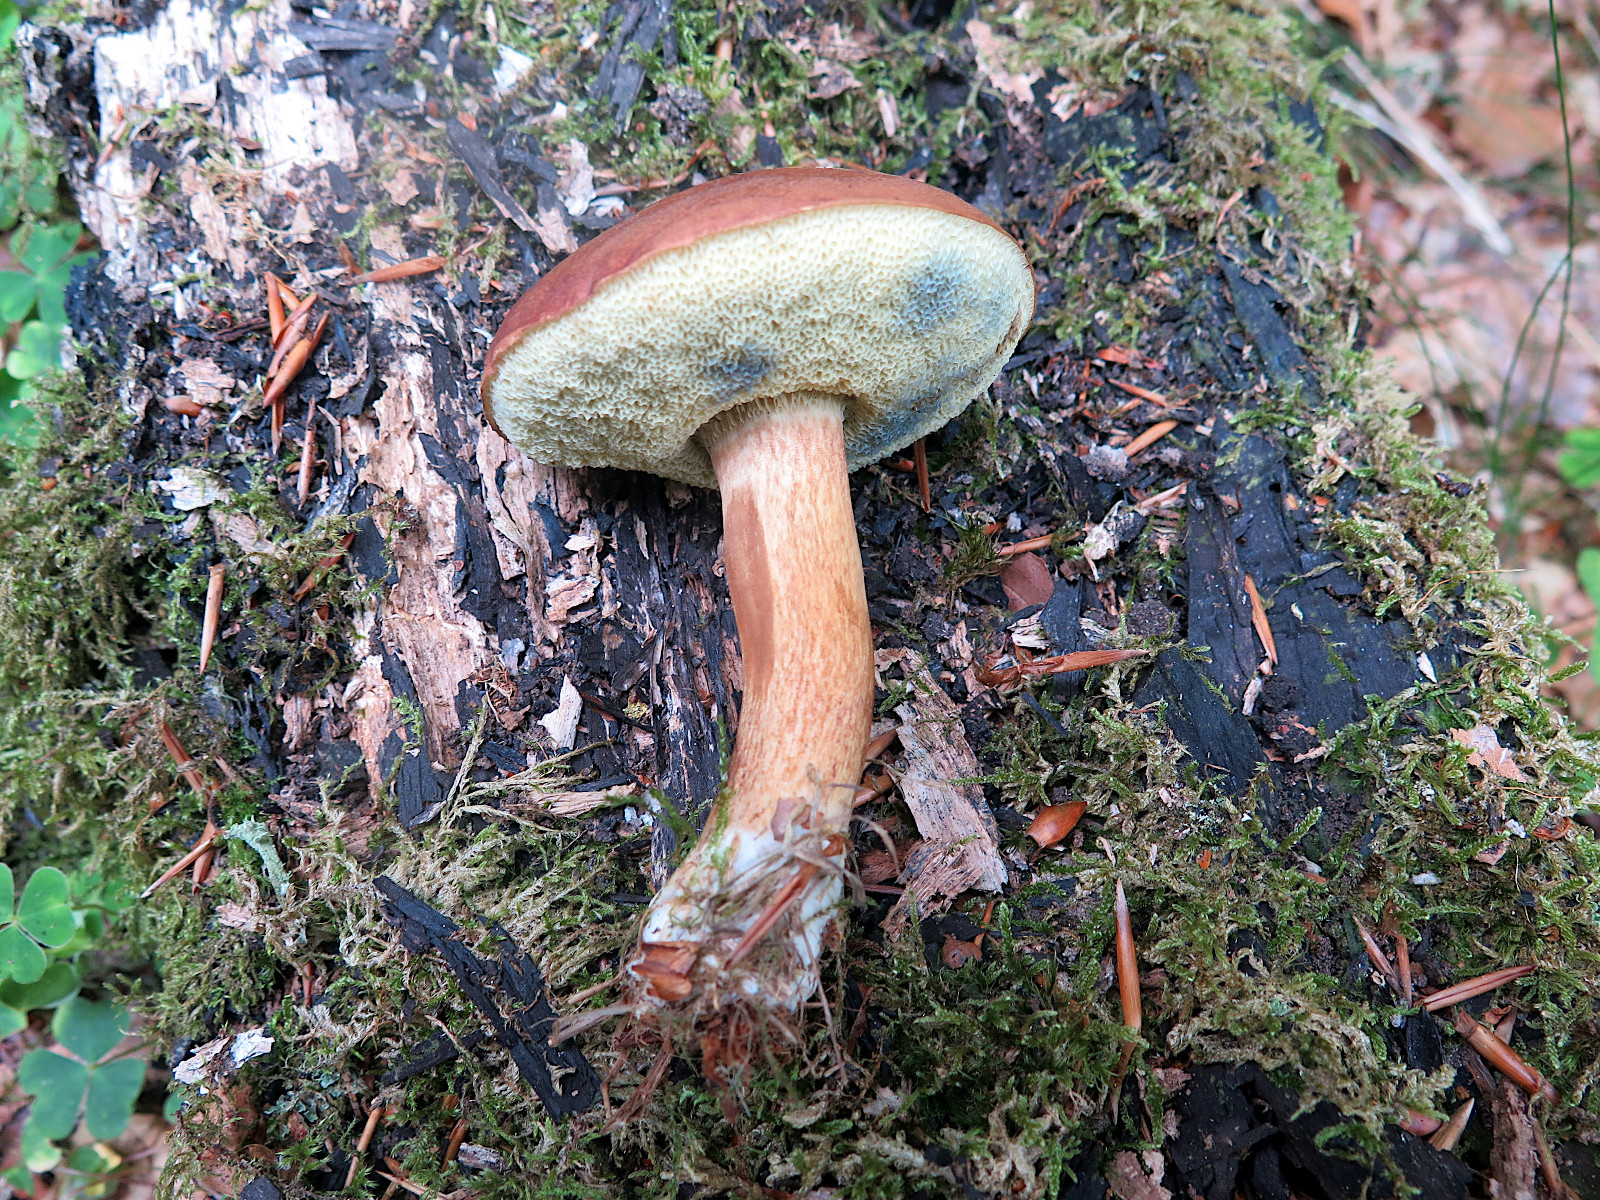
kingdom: Fungi
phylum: Basidiomycota
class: Agaricomycetes
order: Boletales
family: Boletaceae
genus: Imleria
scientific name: Imleria badia
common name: brunstokket rørhat
